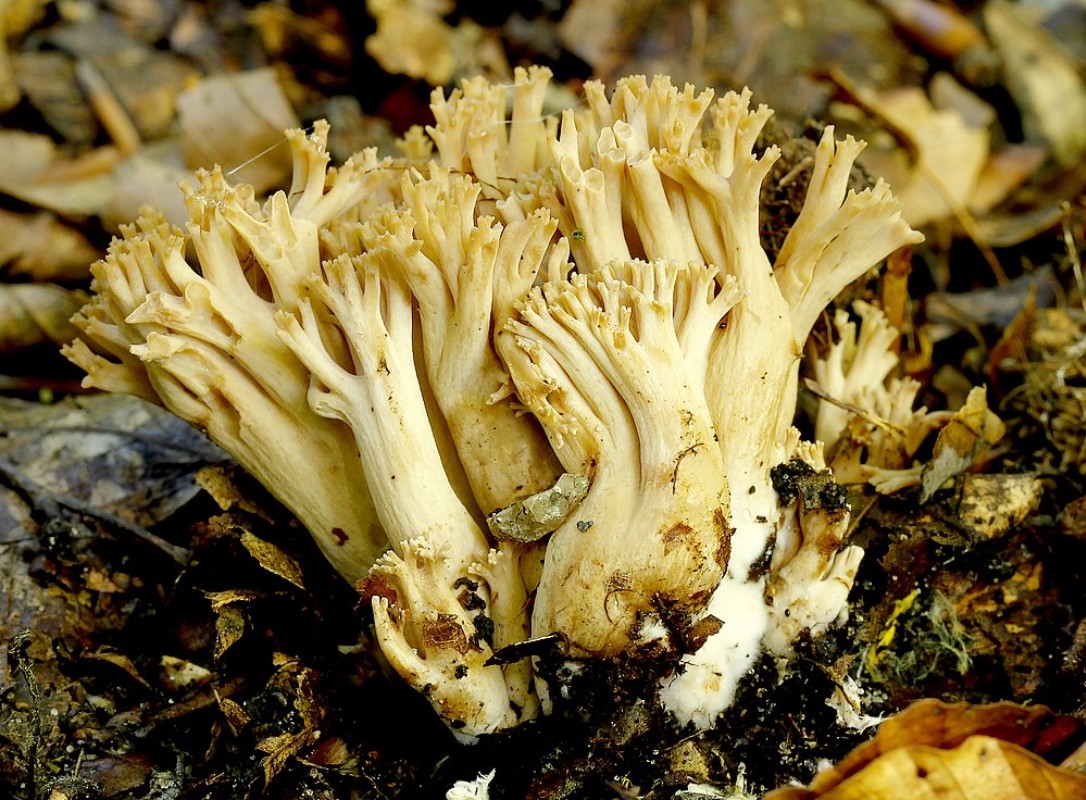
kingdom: Fungi
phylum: Basidiomycota
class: Agaricomycetes
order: Gomphales
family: Gomphaceae
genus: Ramaria
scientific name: Ramaria
